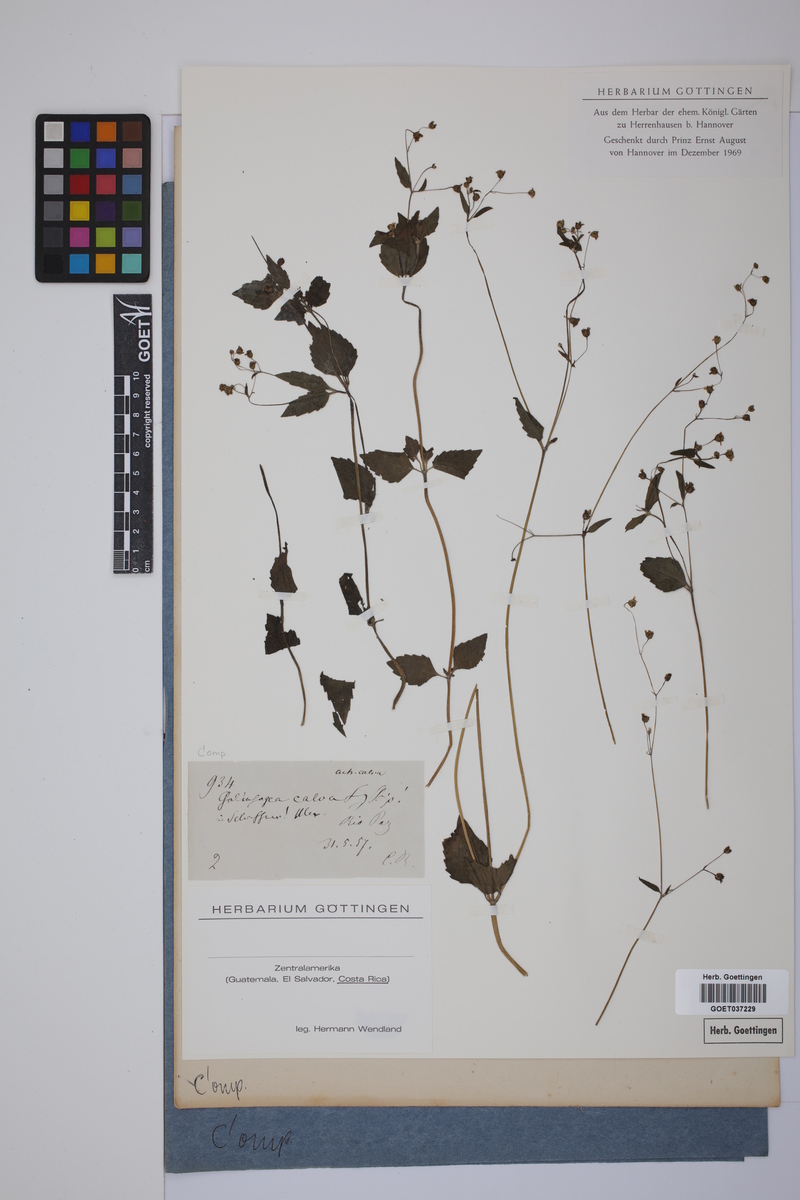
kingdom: Plantae
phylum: Tracheophyta
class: Magnoliopsida
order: Asterales
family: Asteraceae
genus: Galinsoga
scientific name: Galinsoga parviflora
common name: Gallant soldier
